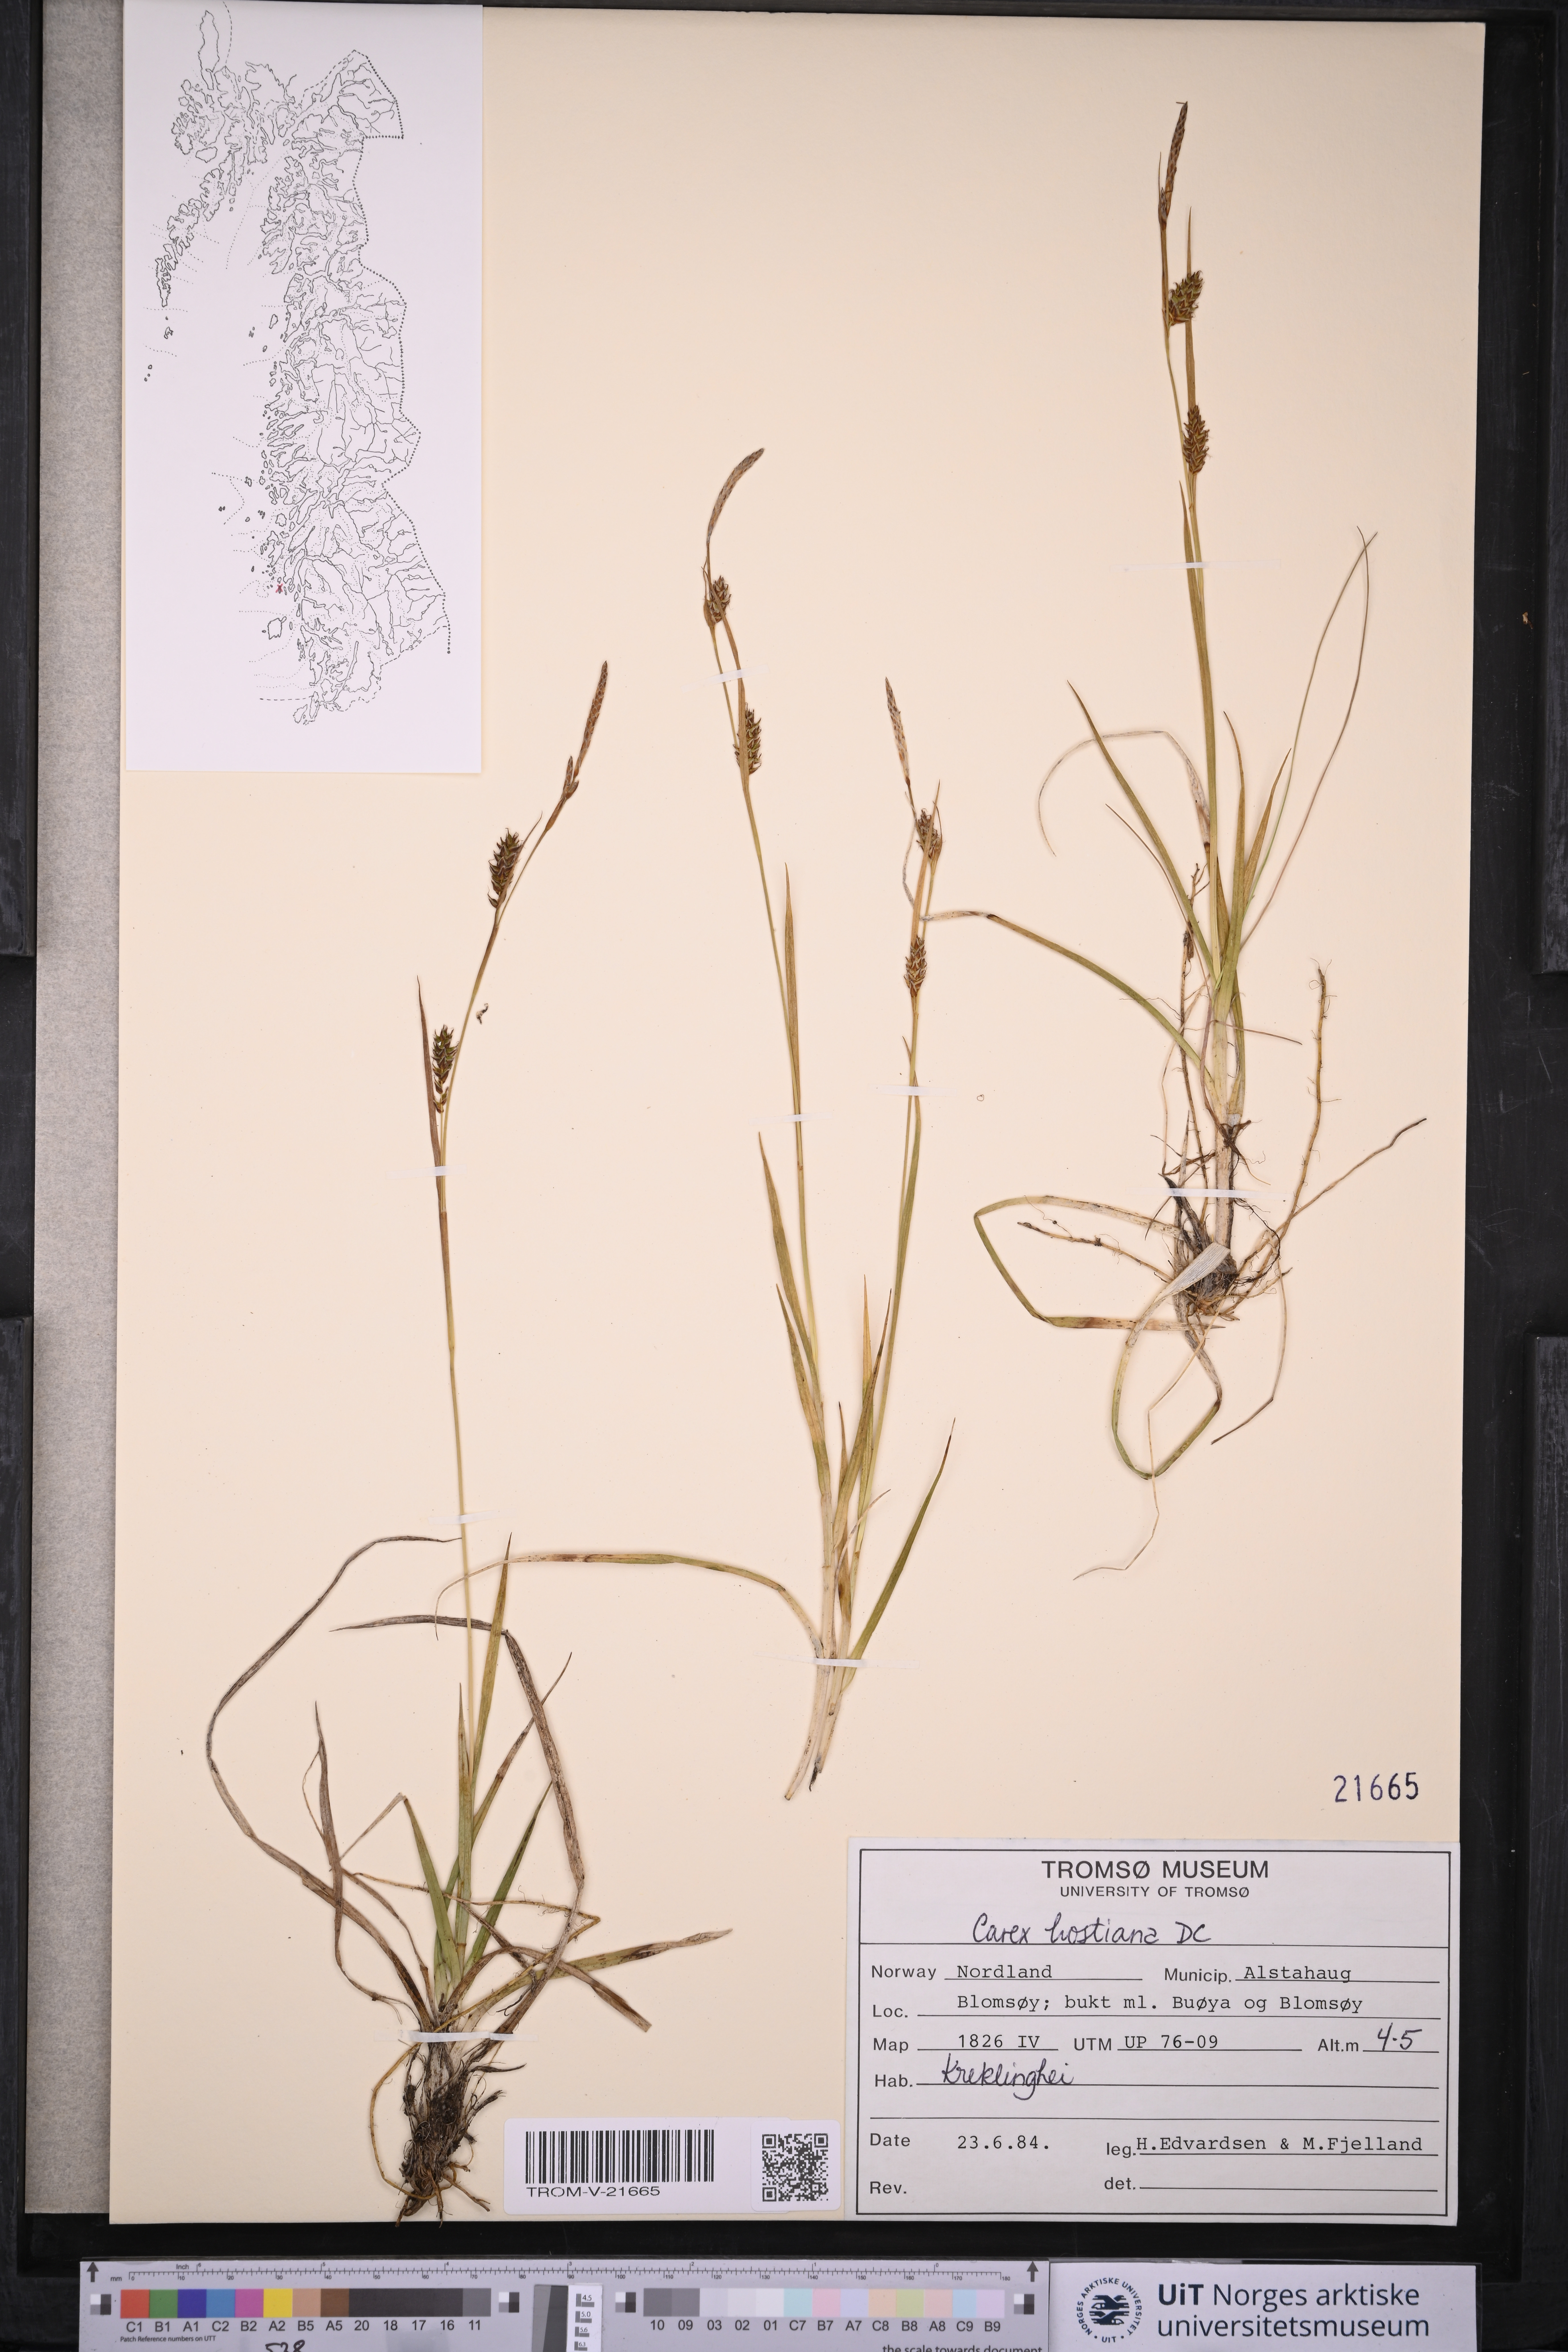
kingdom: Plantae
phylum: Tracheophyta
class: Liliopsida
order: Poales
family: Cyperaceae
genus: Carex
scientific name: Carex hostiana
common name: Tawny sedge
